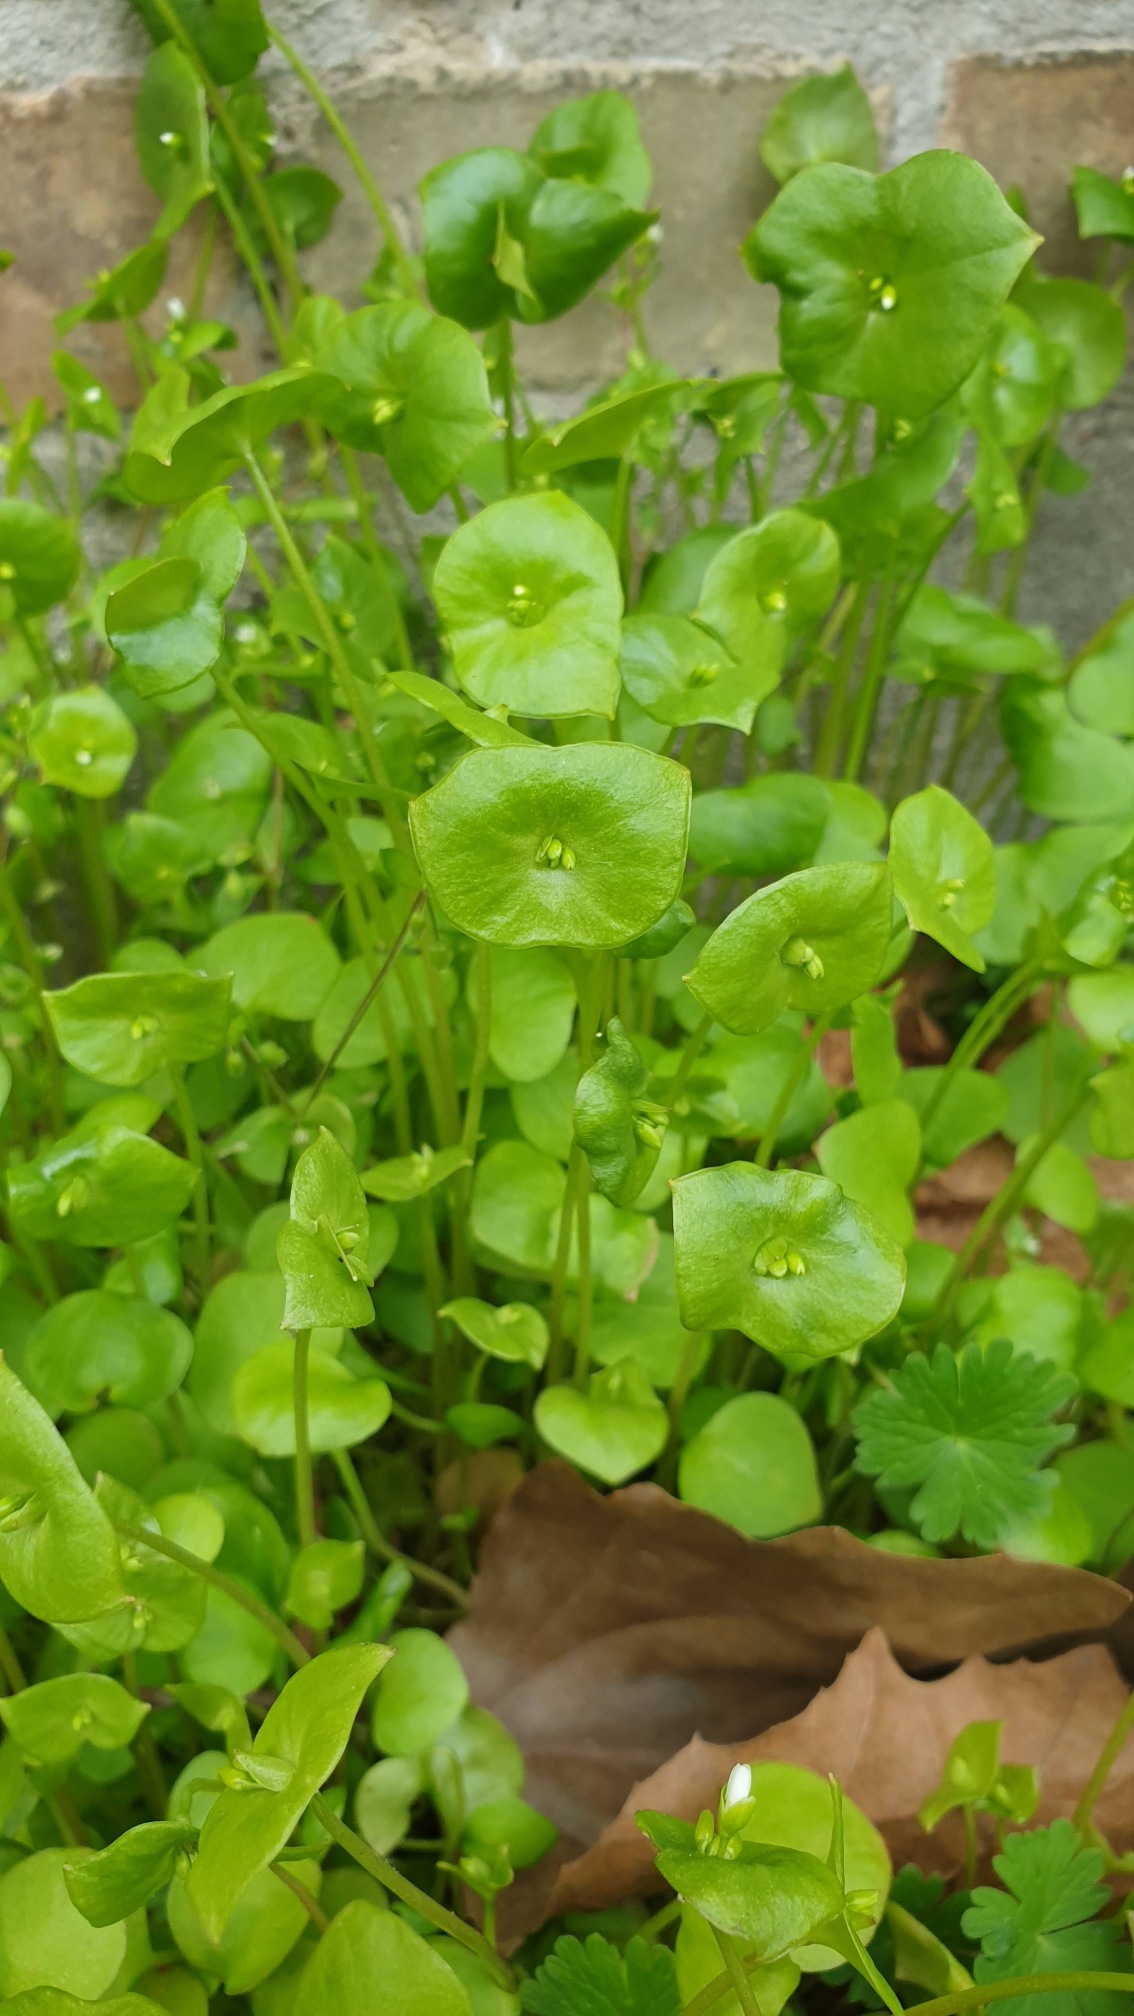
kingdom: Plantae
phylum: Tracheophyta
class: Magnoliopsida
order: Caryophyllales
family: Montiaceae
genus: Claytonia
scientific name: Claytonia perfoliata
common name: Spiselig vinterportulak
